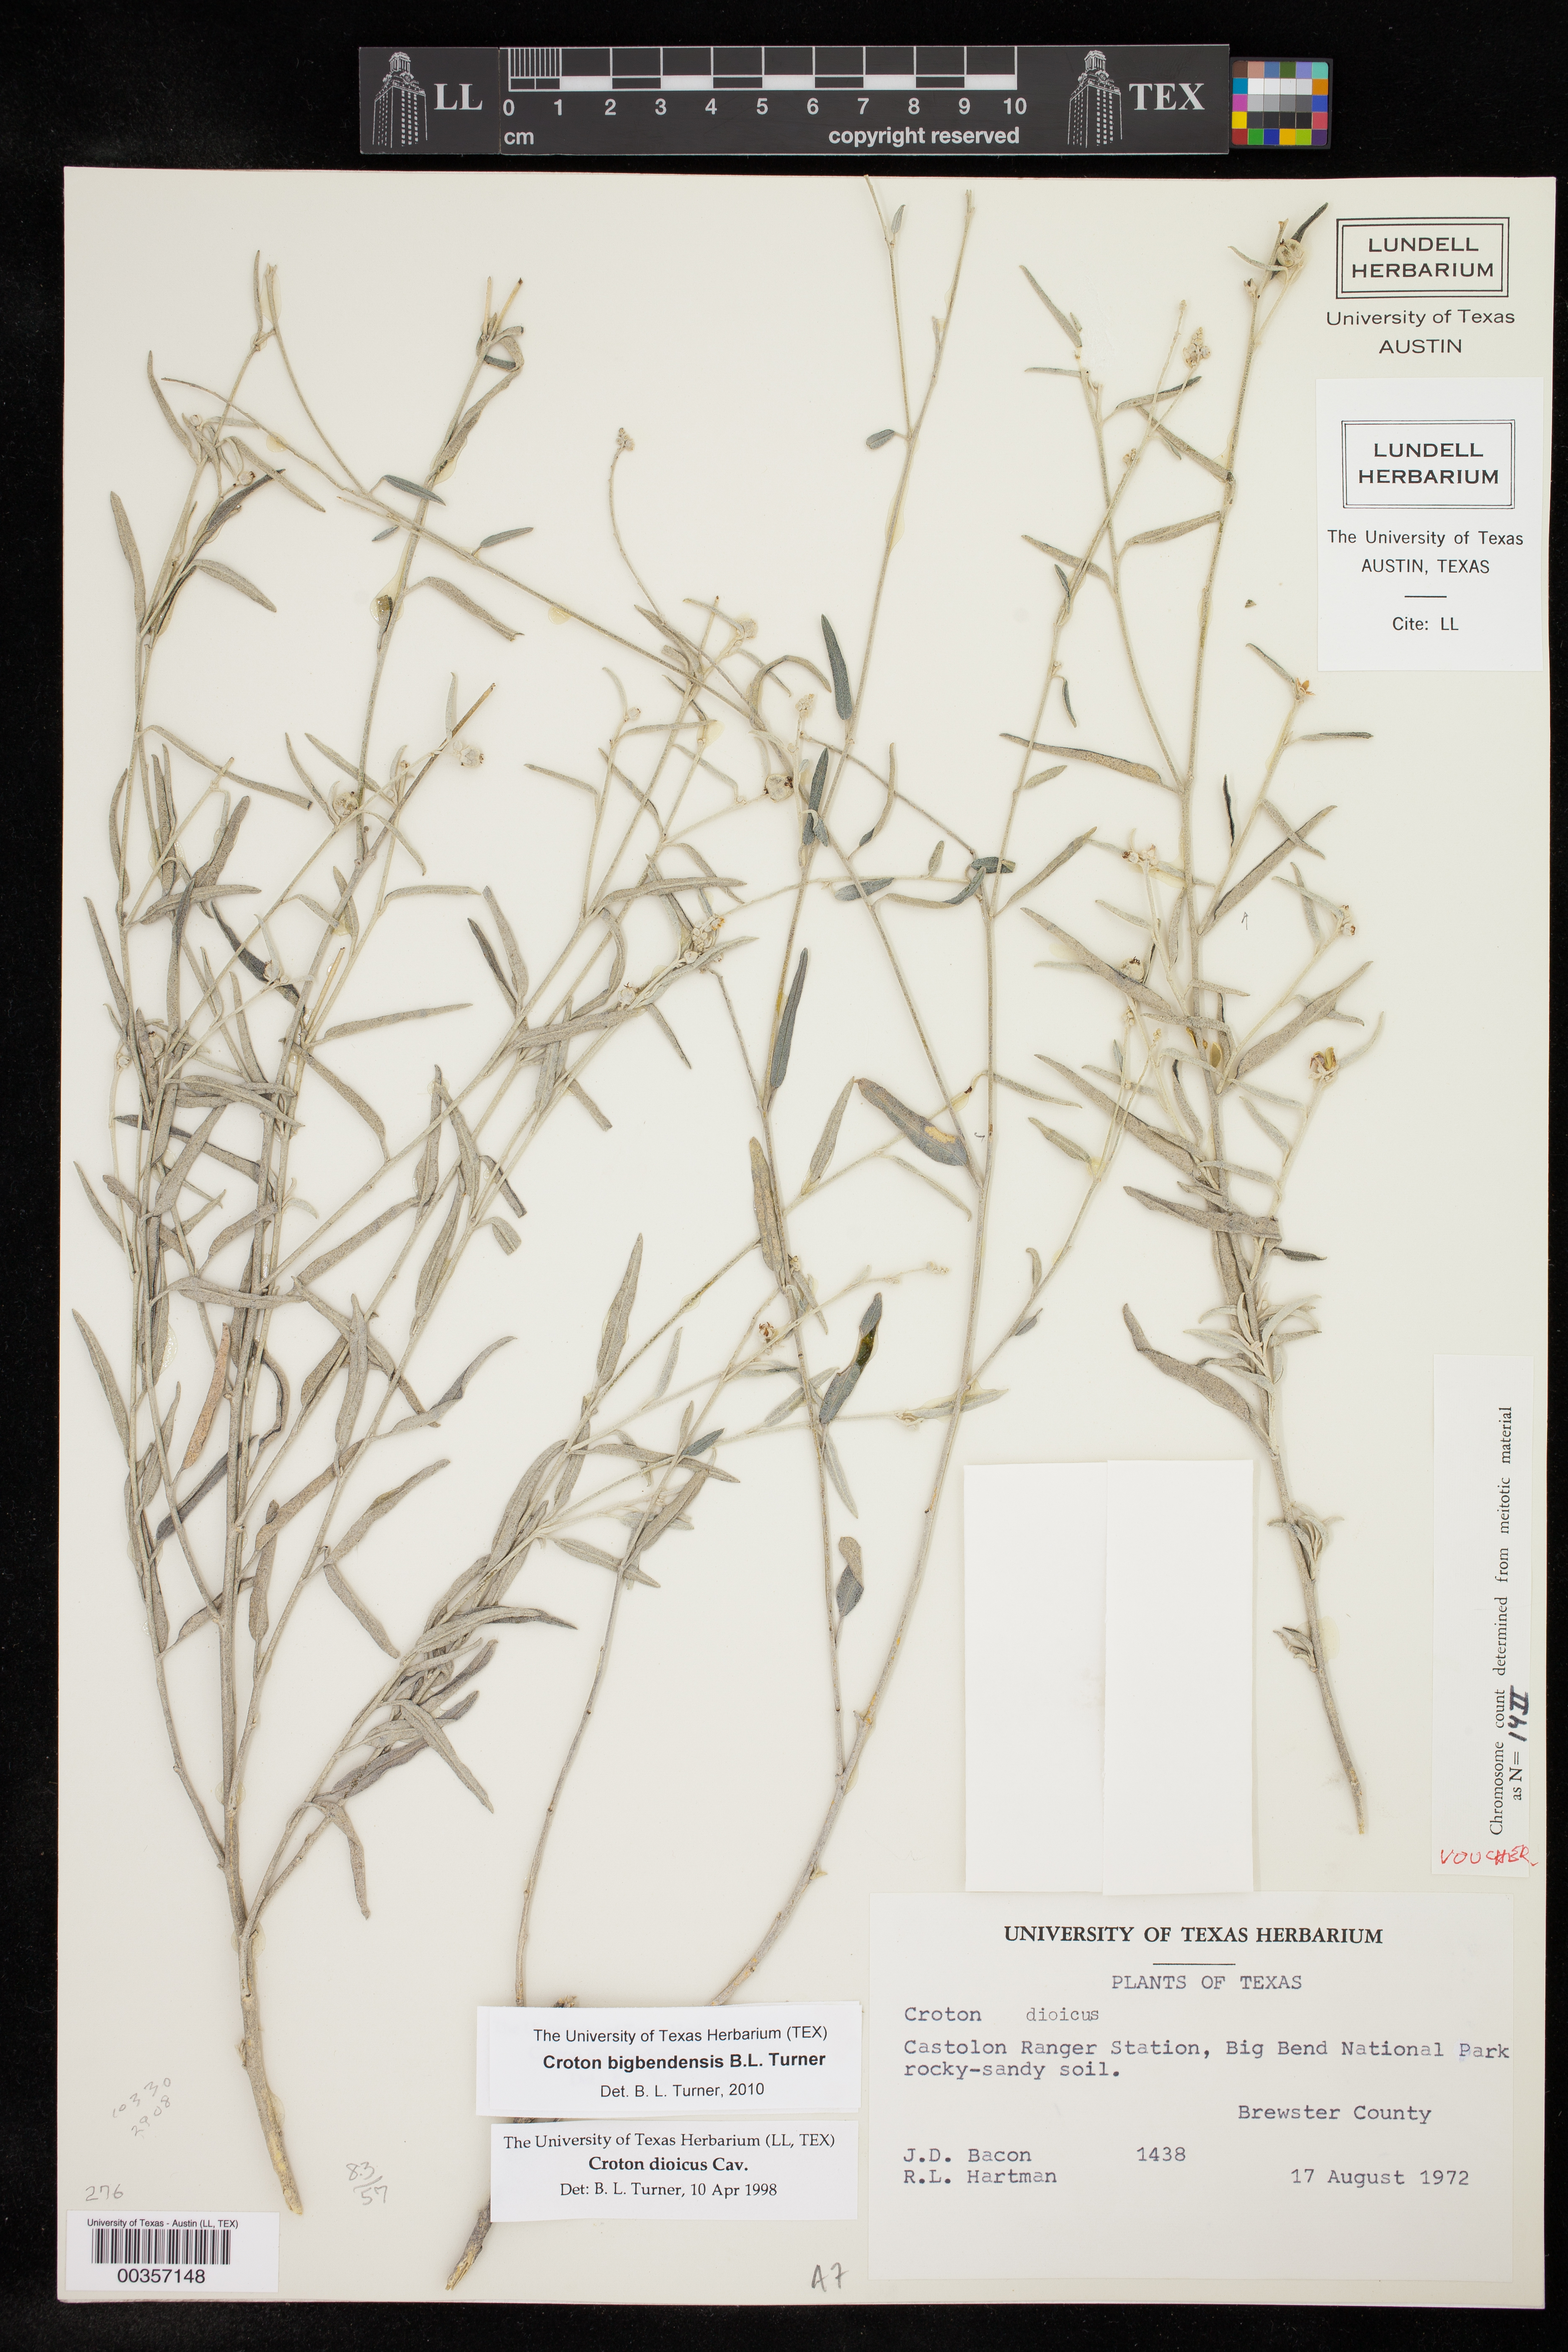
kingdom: Plantae
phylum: Tracheophyta
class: Magnoliopsida
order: Malpighiales
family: Euphorbiaceae
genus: Croton
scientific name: Croton bigbendensis
